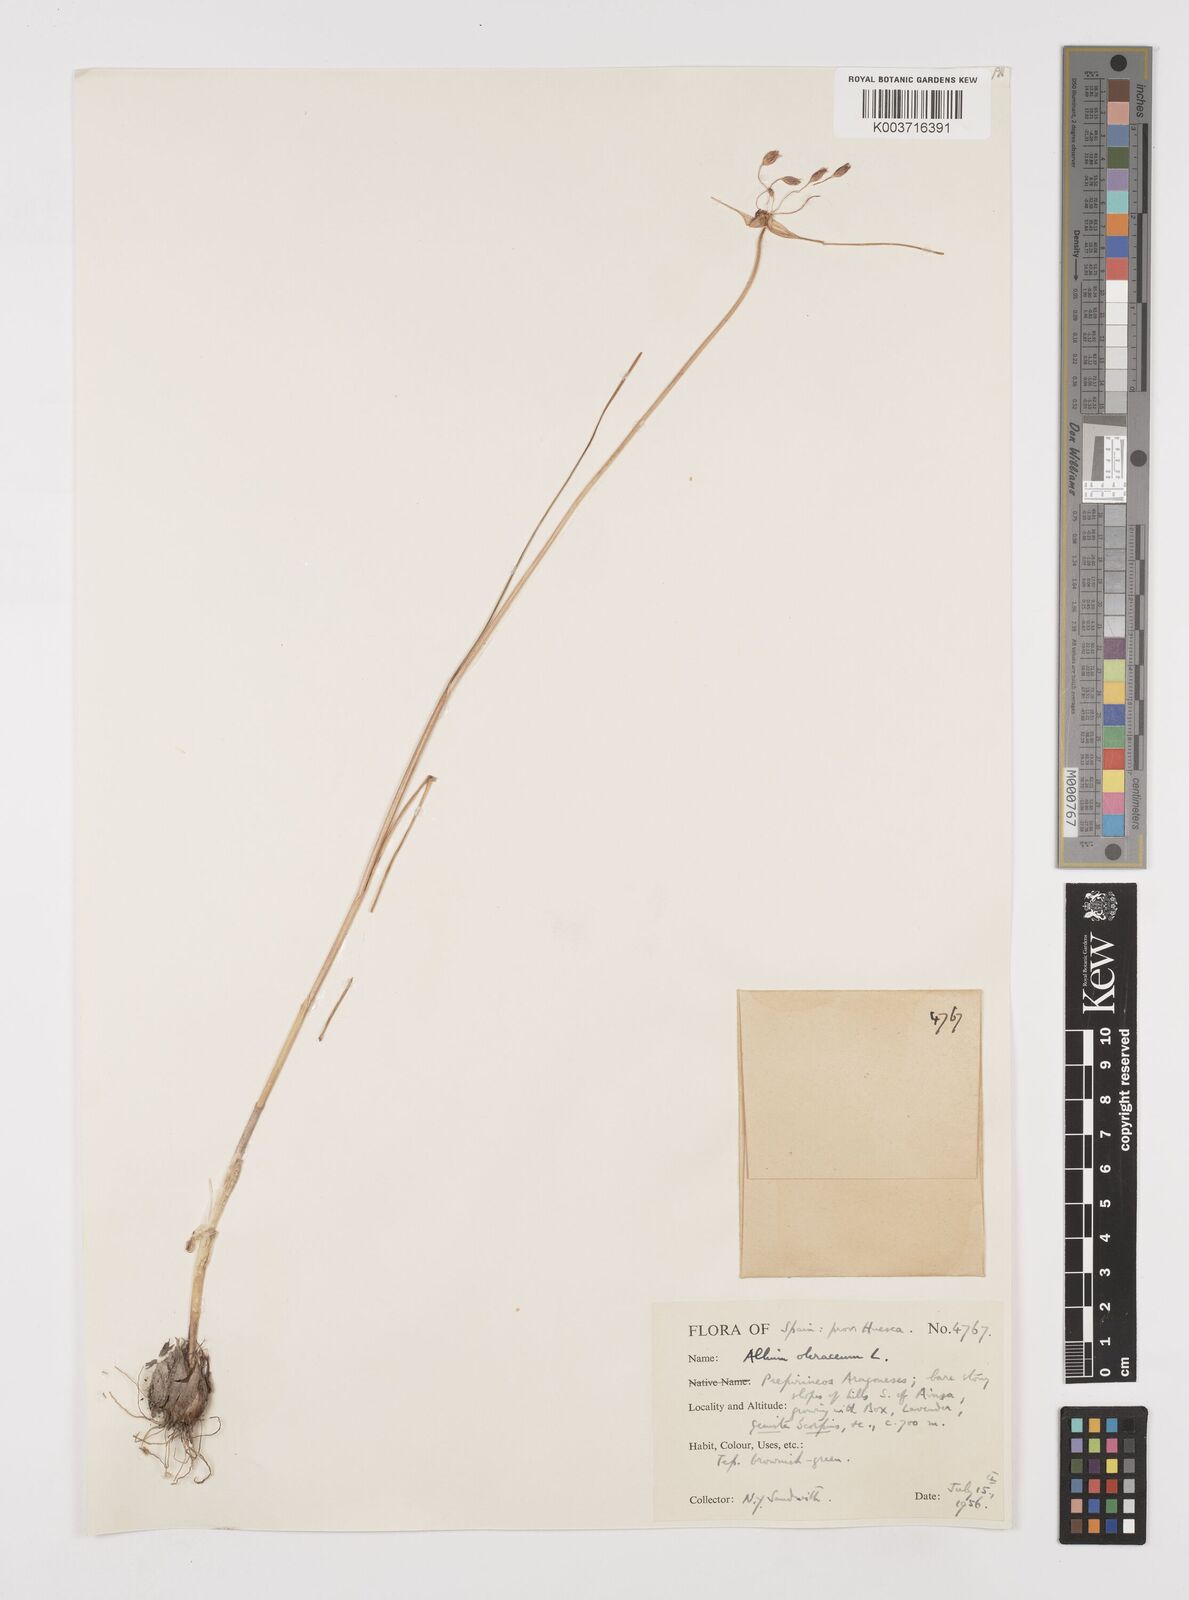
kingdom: Plantae
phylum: Tracheophyta
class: Liliopsida
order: Asparagales
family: Amaryllidaceae
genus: Allium
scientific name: Allium oleraceum
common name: Field garlic
